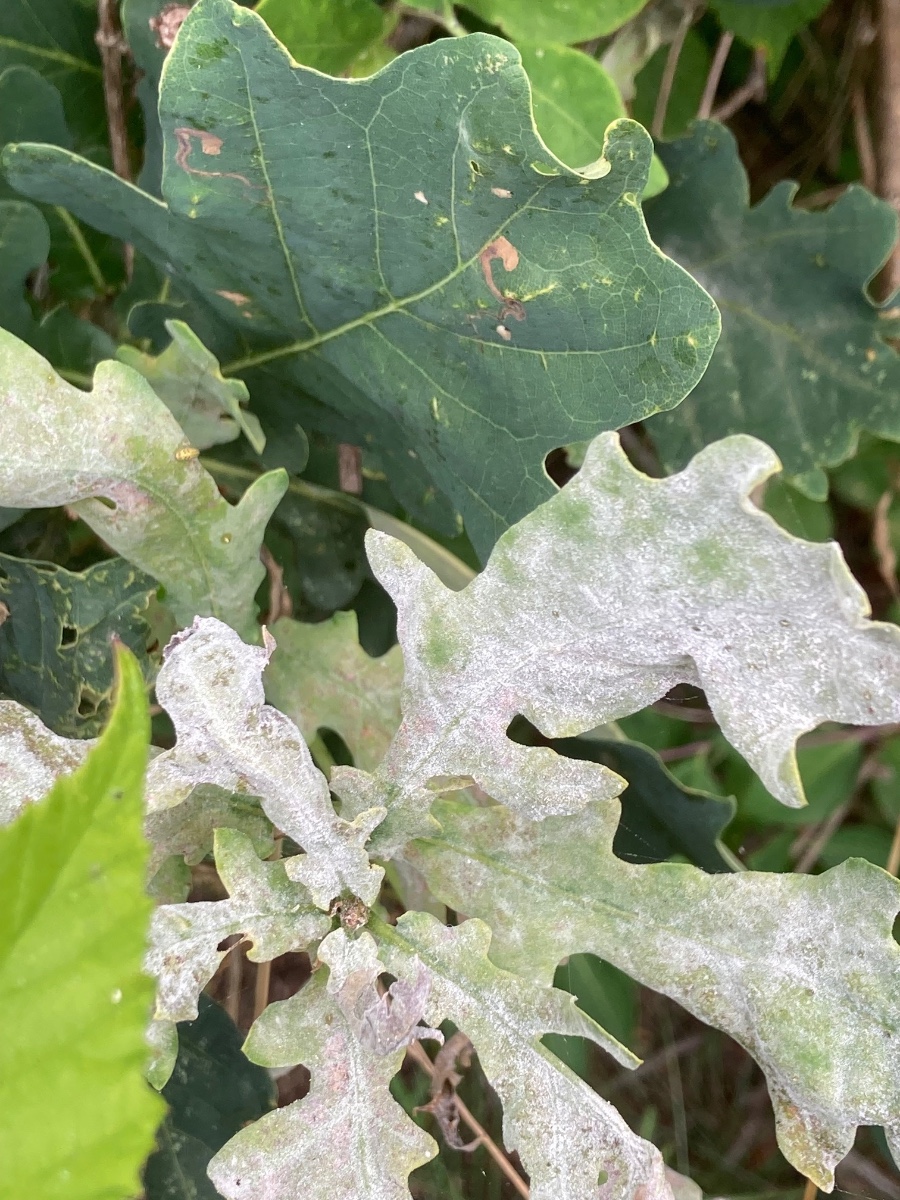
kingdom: Fungi
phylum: Ascomycota
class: Leotiomycetes
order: Helotiales
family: Erysiphaceae
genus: Erysiphe
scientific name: Erysiphe alphitoides
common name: ege-meldug
